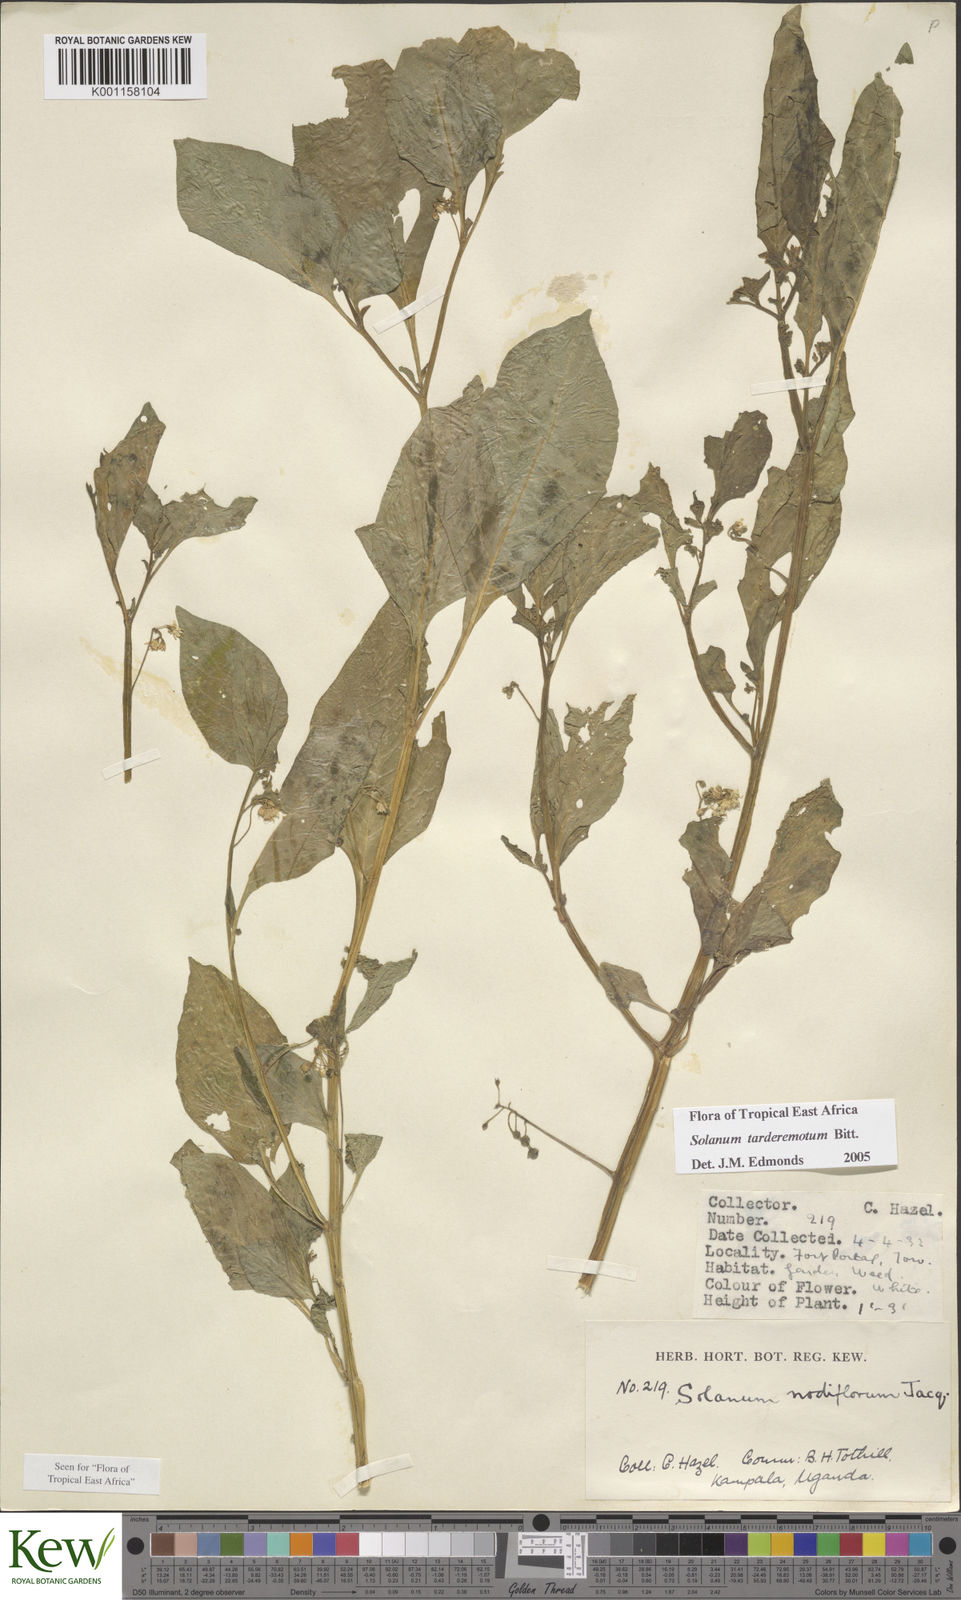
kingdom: Plantae
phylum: Tracheophyta
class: Magnoliopsida
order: Solanales
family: Solanaceae
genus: Solanum
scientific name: Solanum tarderemotum
